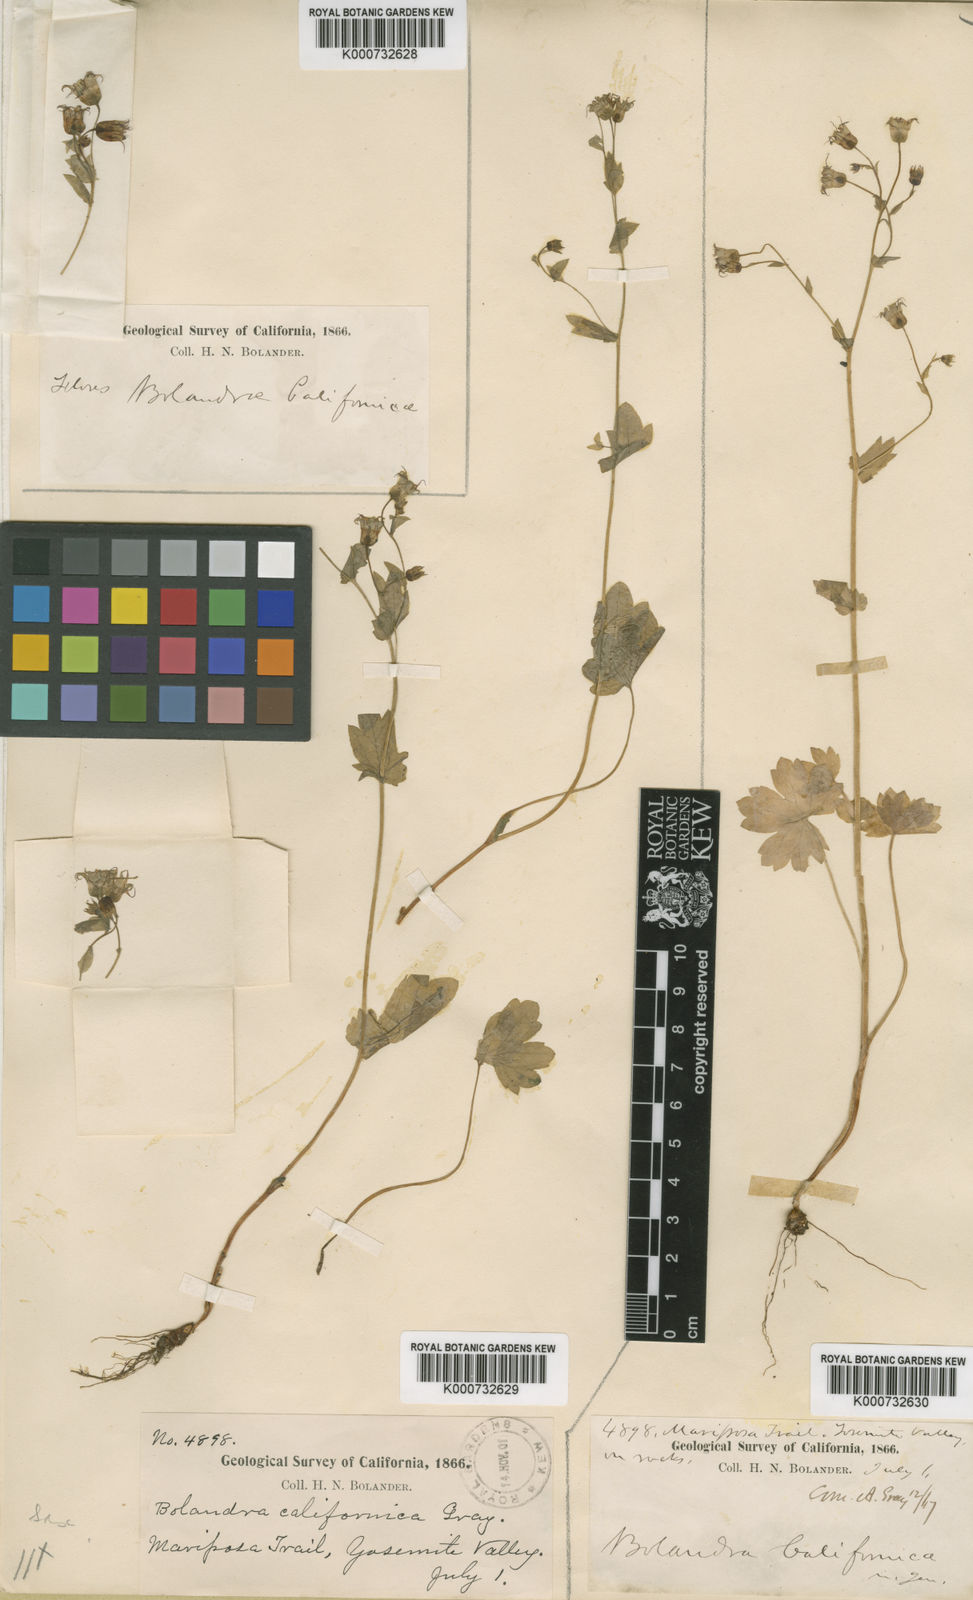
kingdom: Plantae
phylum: Tracheophyta
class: Magnoliopsida
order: Saxifragales
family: Saxifragaceae
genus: Bolandra
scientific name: Bolandra californica
